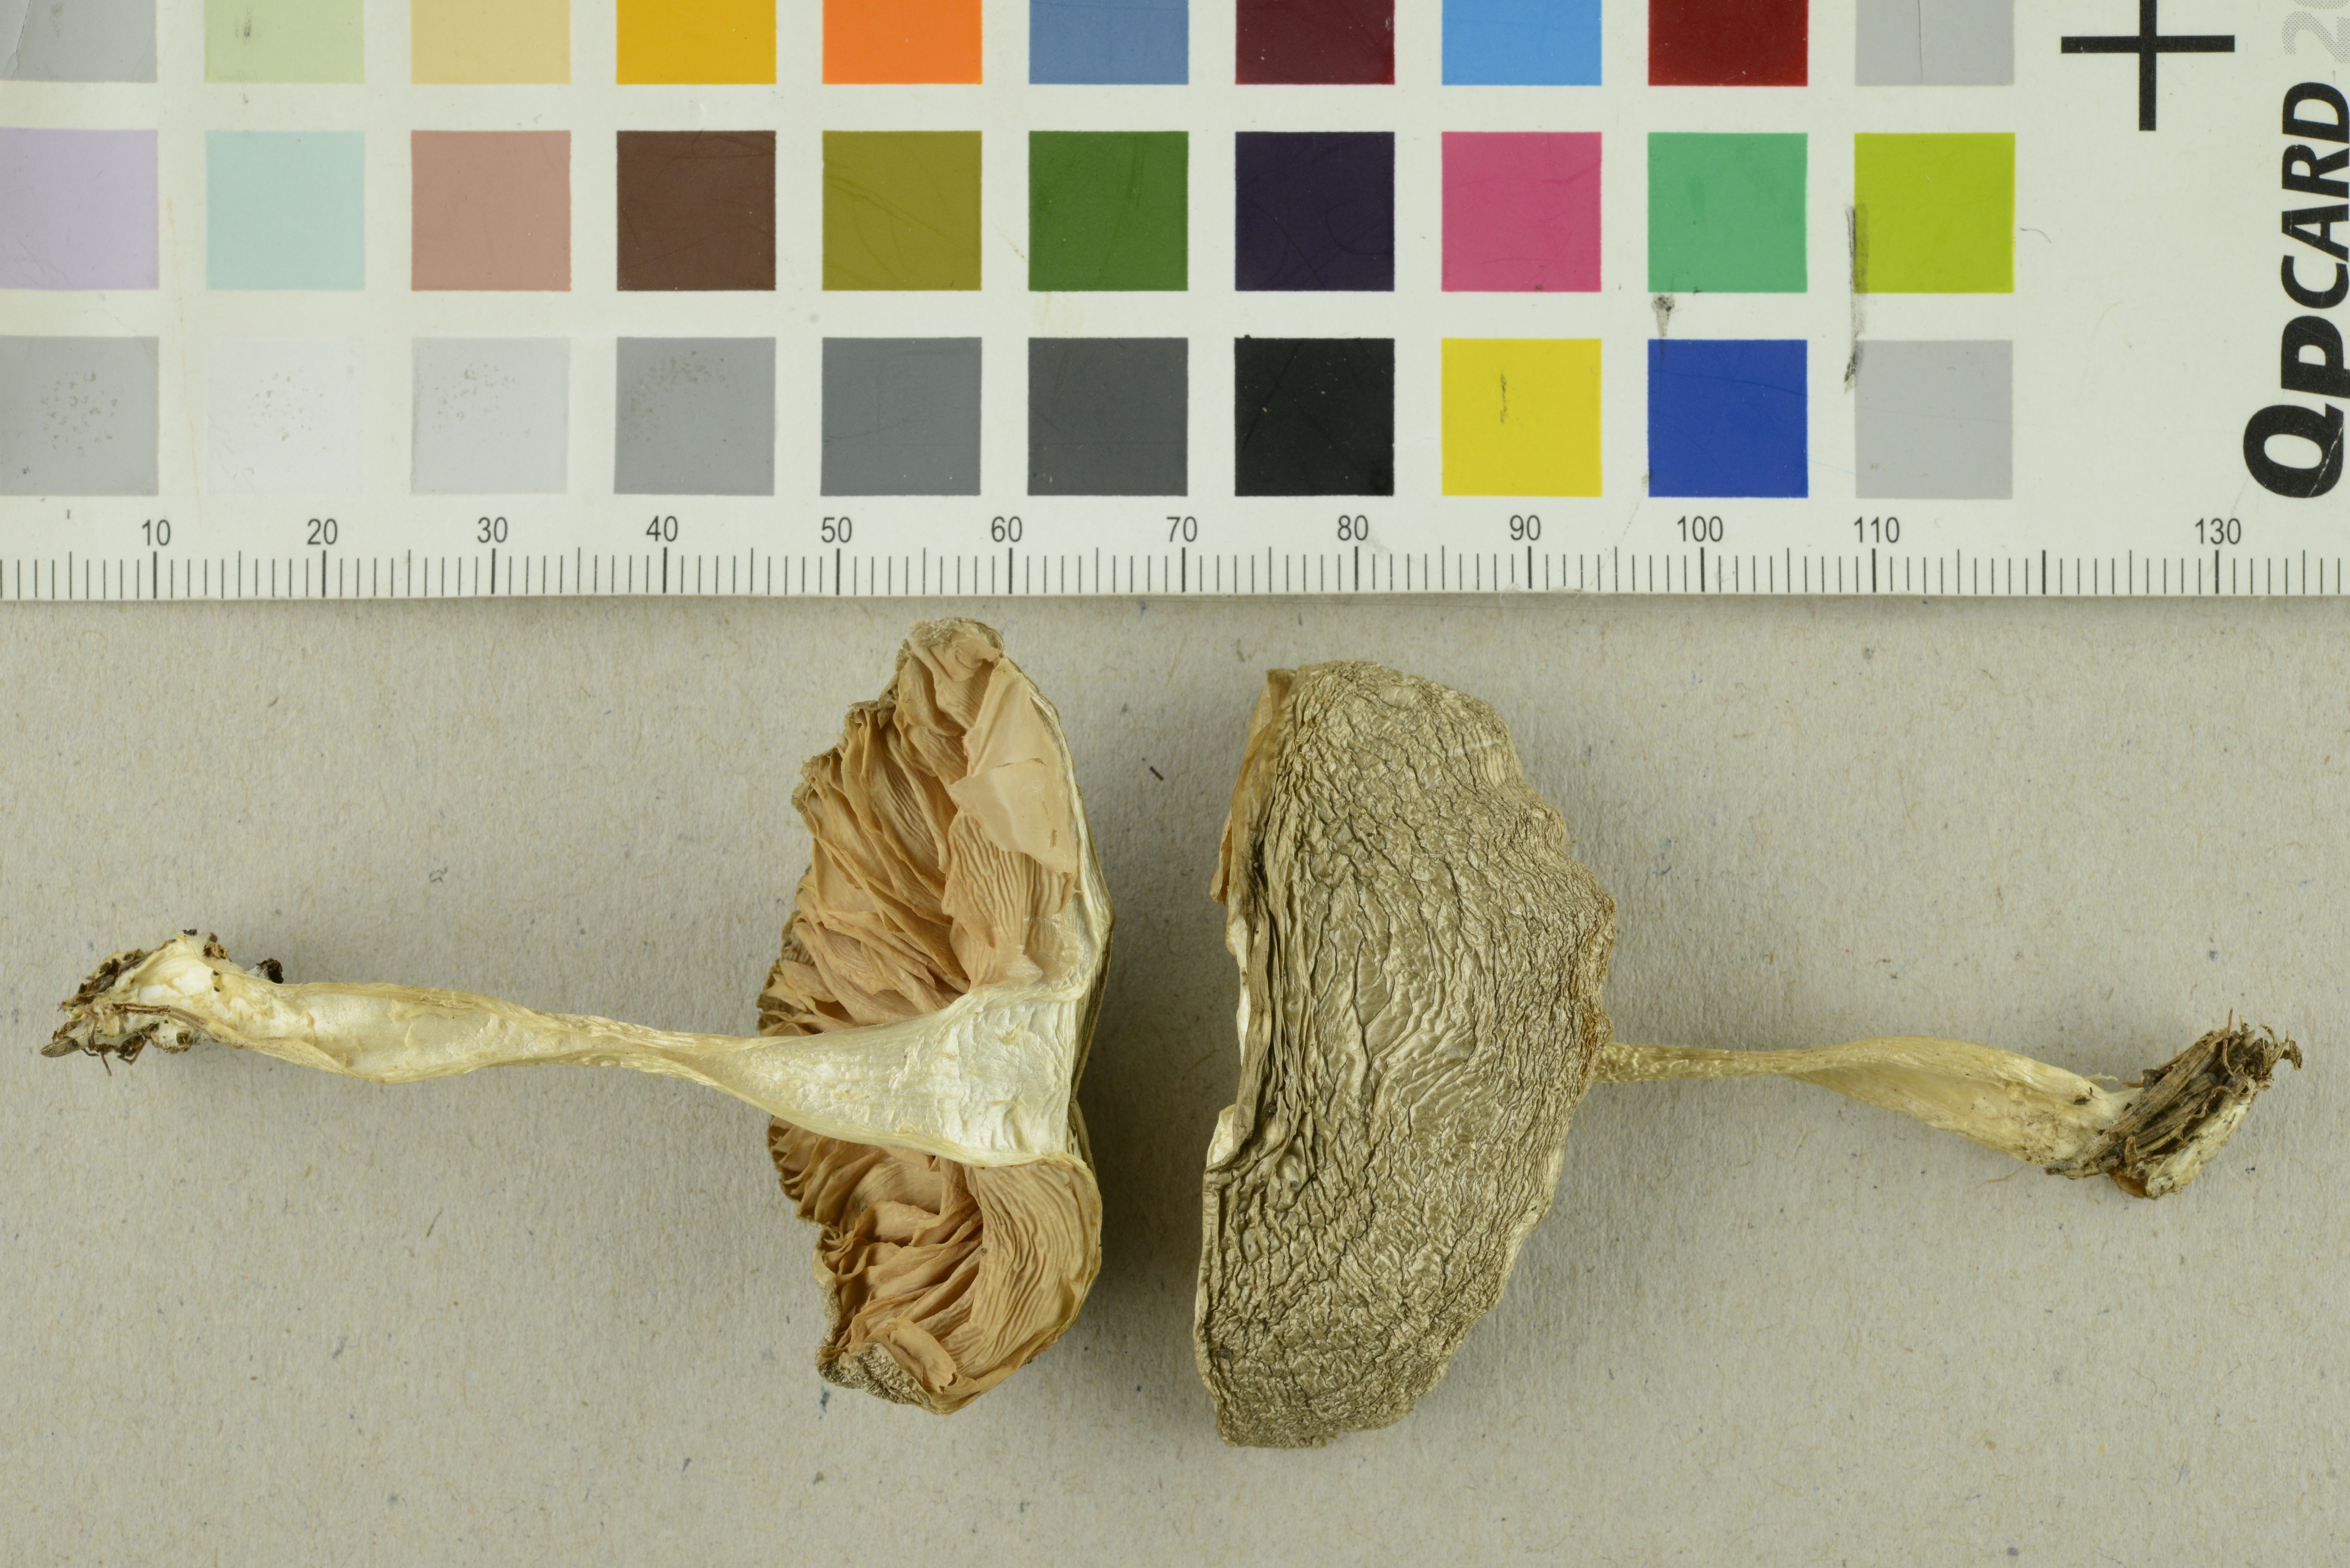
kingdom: Fungi
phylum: Basidiomycota
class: Agaricomycetes
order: Agaricales
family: Entolomataceae
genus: Entoloma
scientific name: Entoloma rhodopolium
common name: Wood pinkgill
